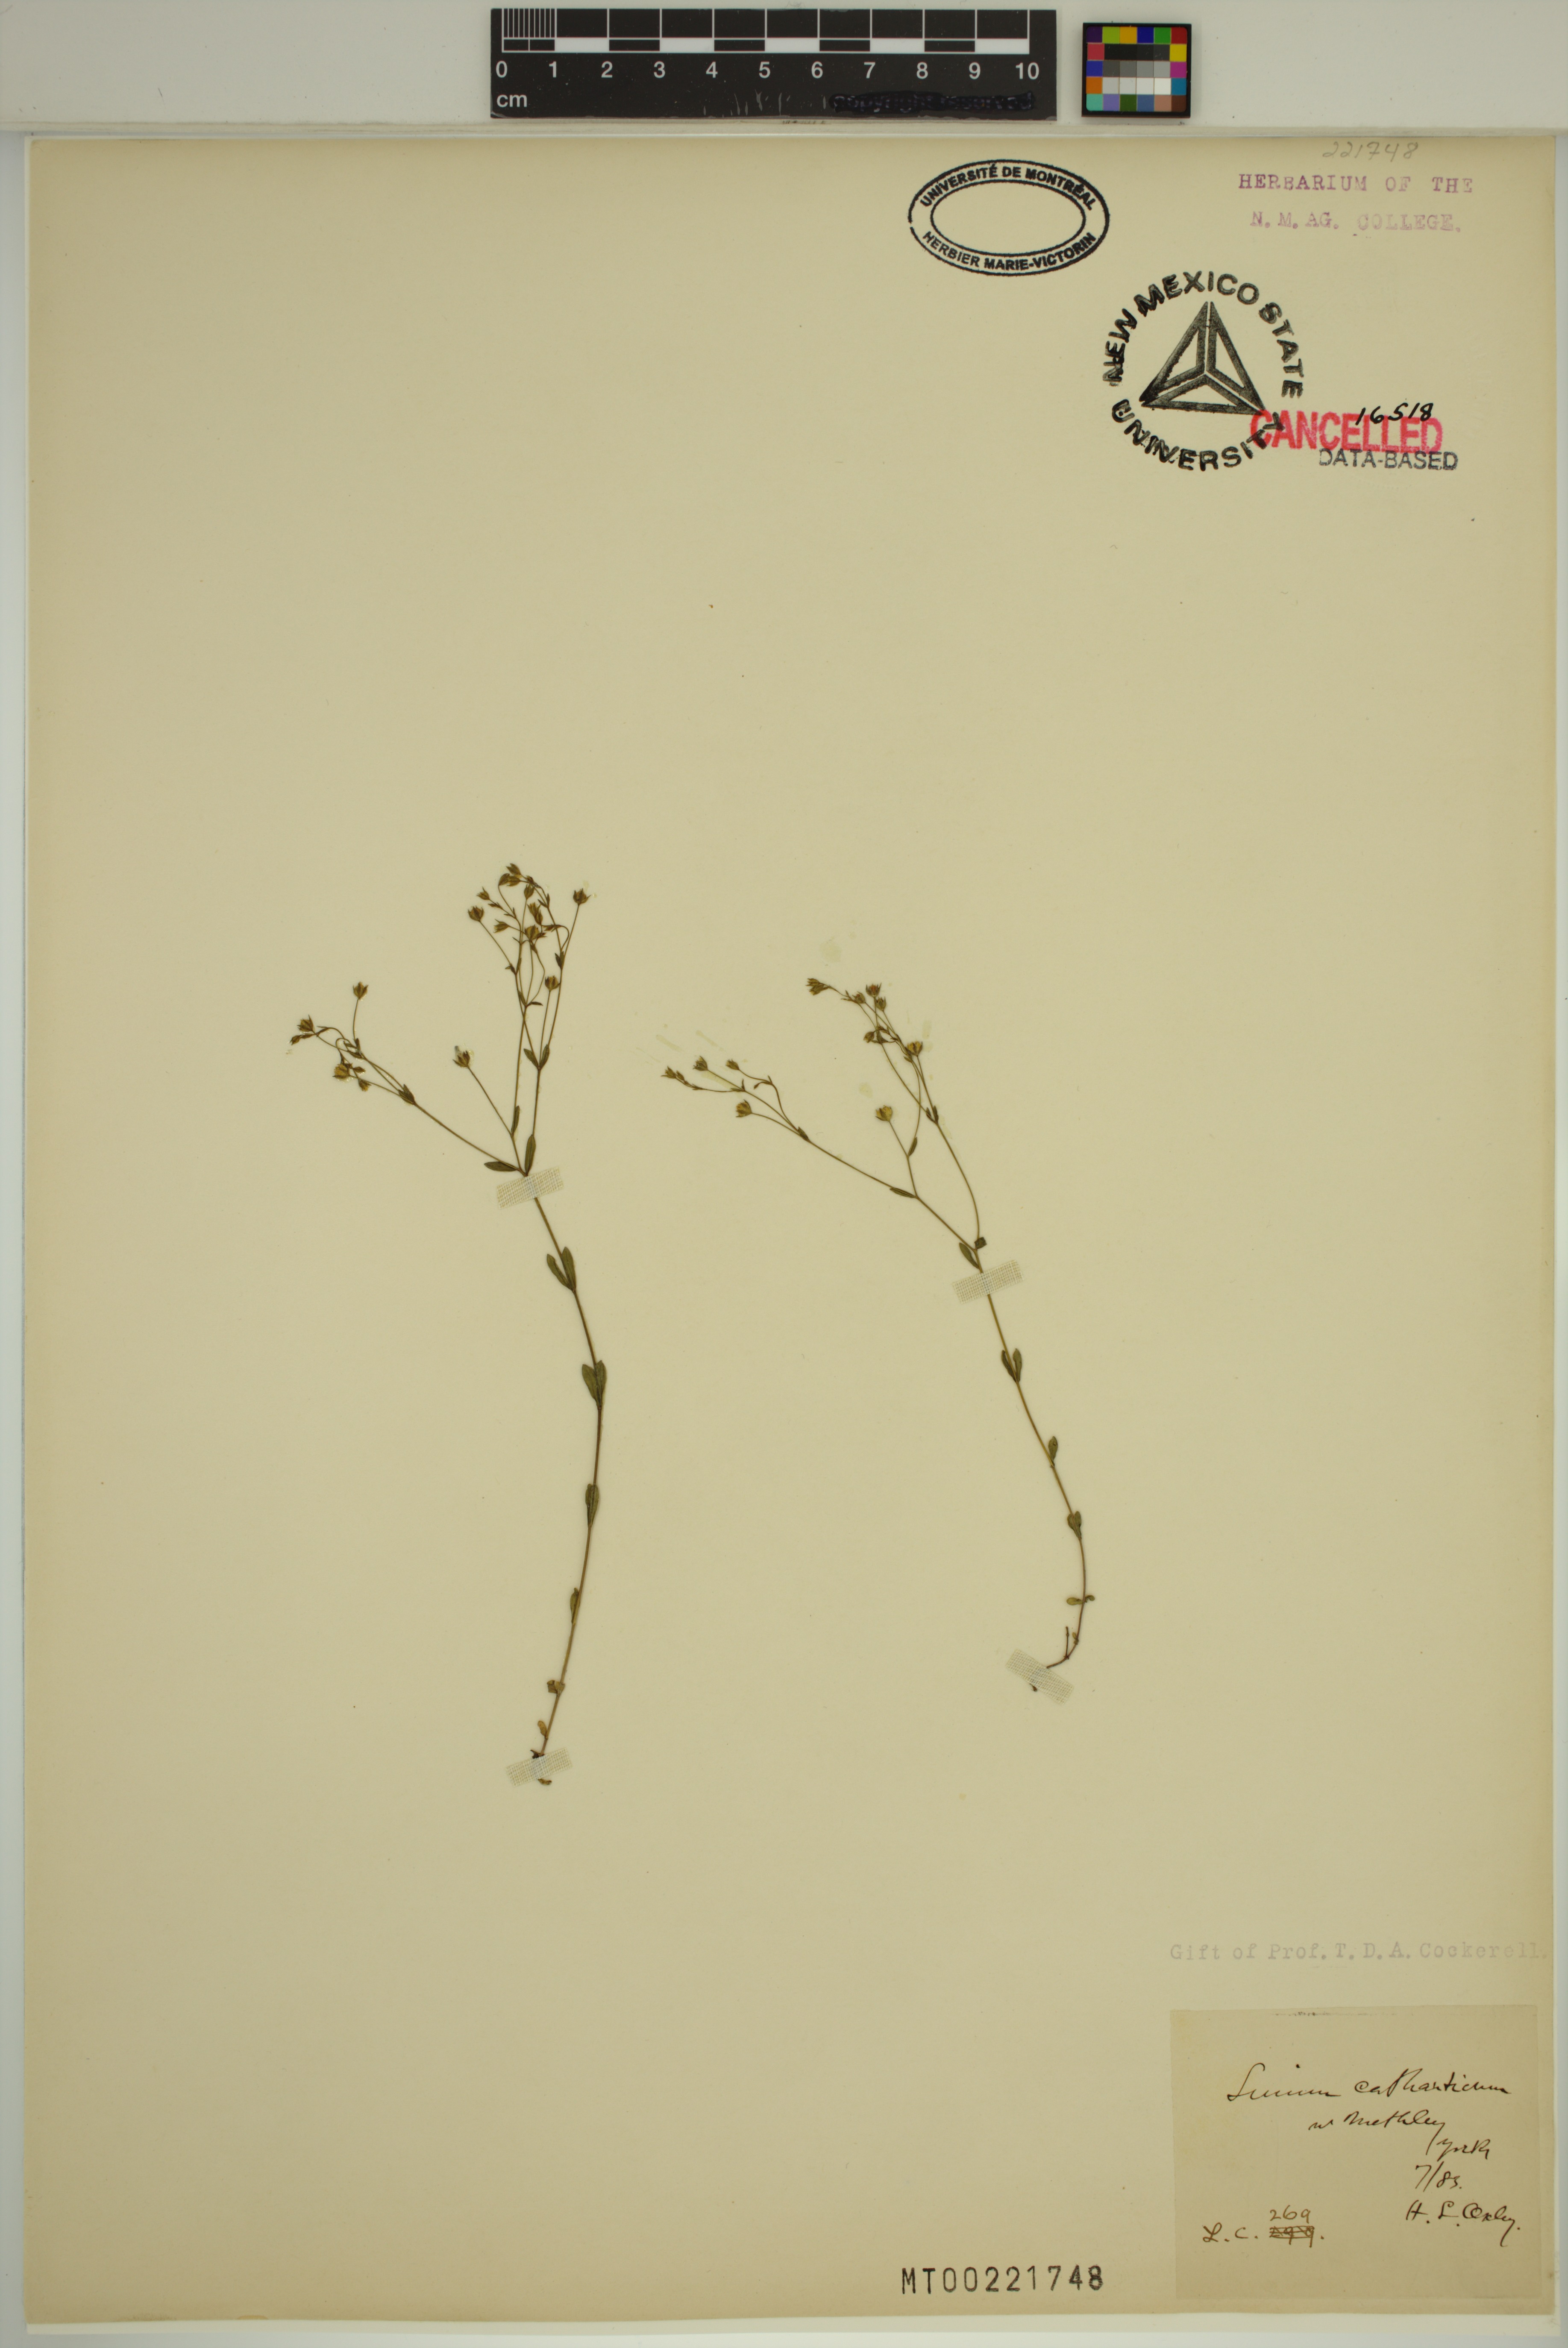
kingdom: Plantae
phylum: Tracheophyta
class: Magnoliopsida
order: Malpighiales
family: Linaceae
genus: Linum
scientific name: Linum catharticum
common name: Fairy flax
